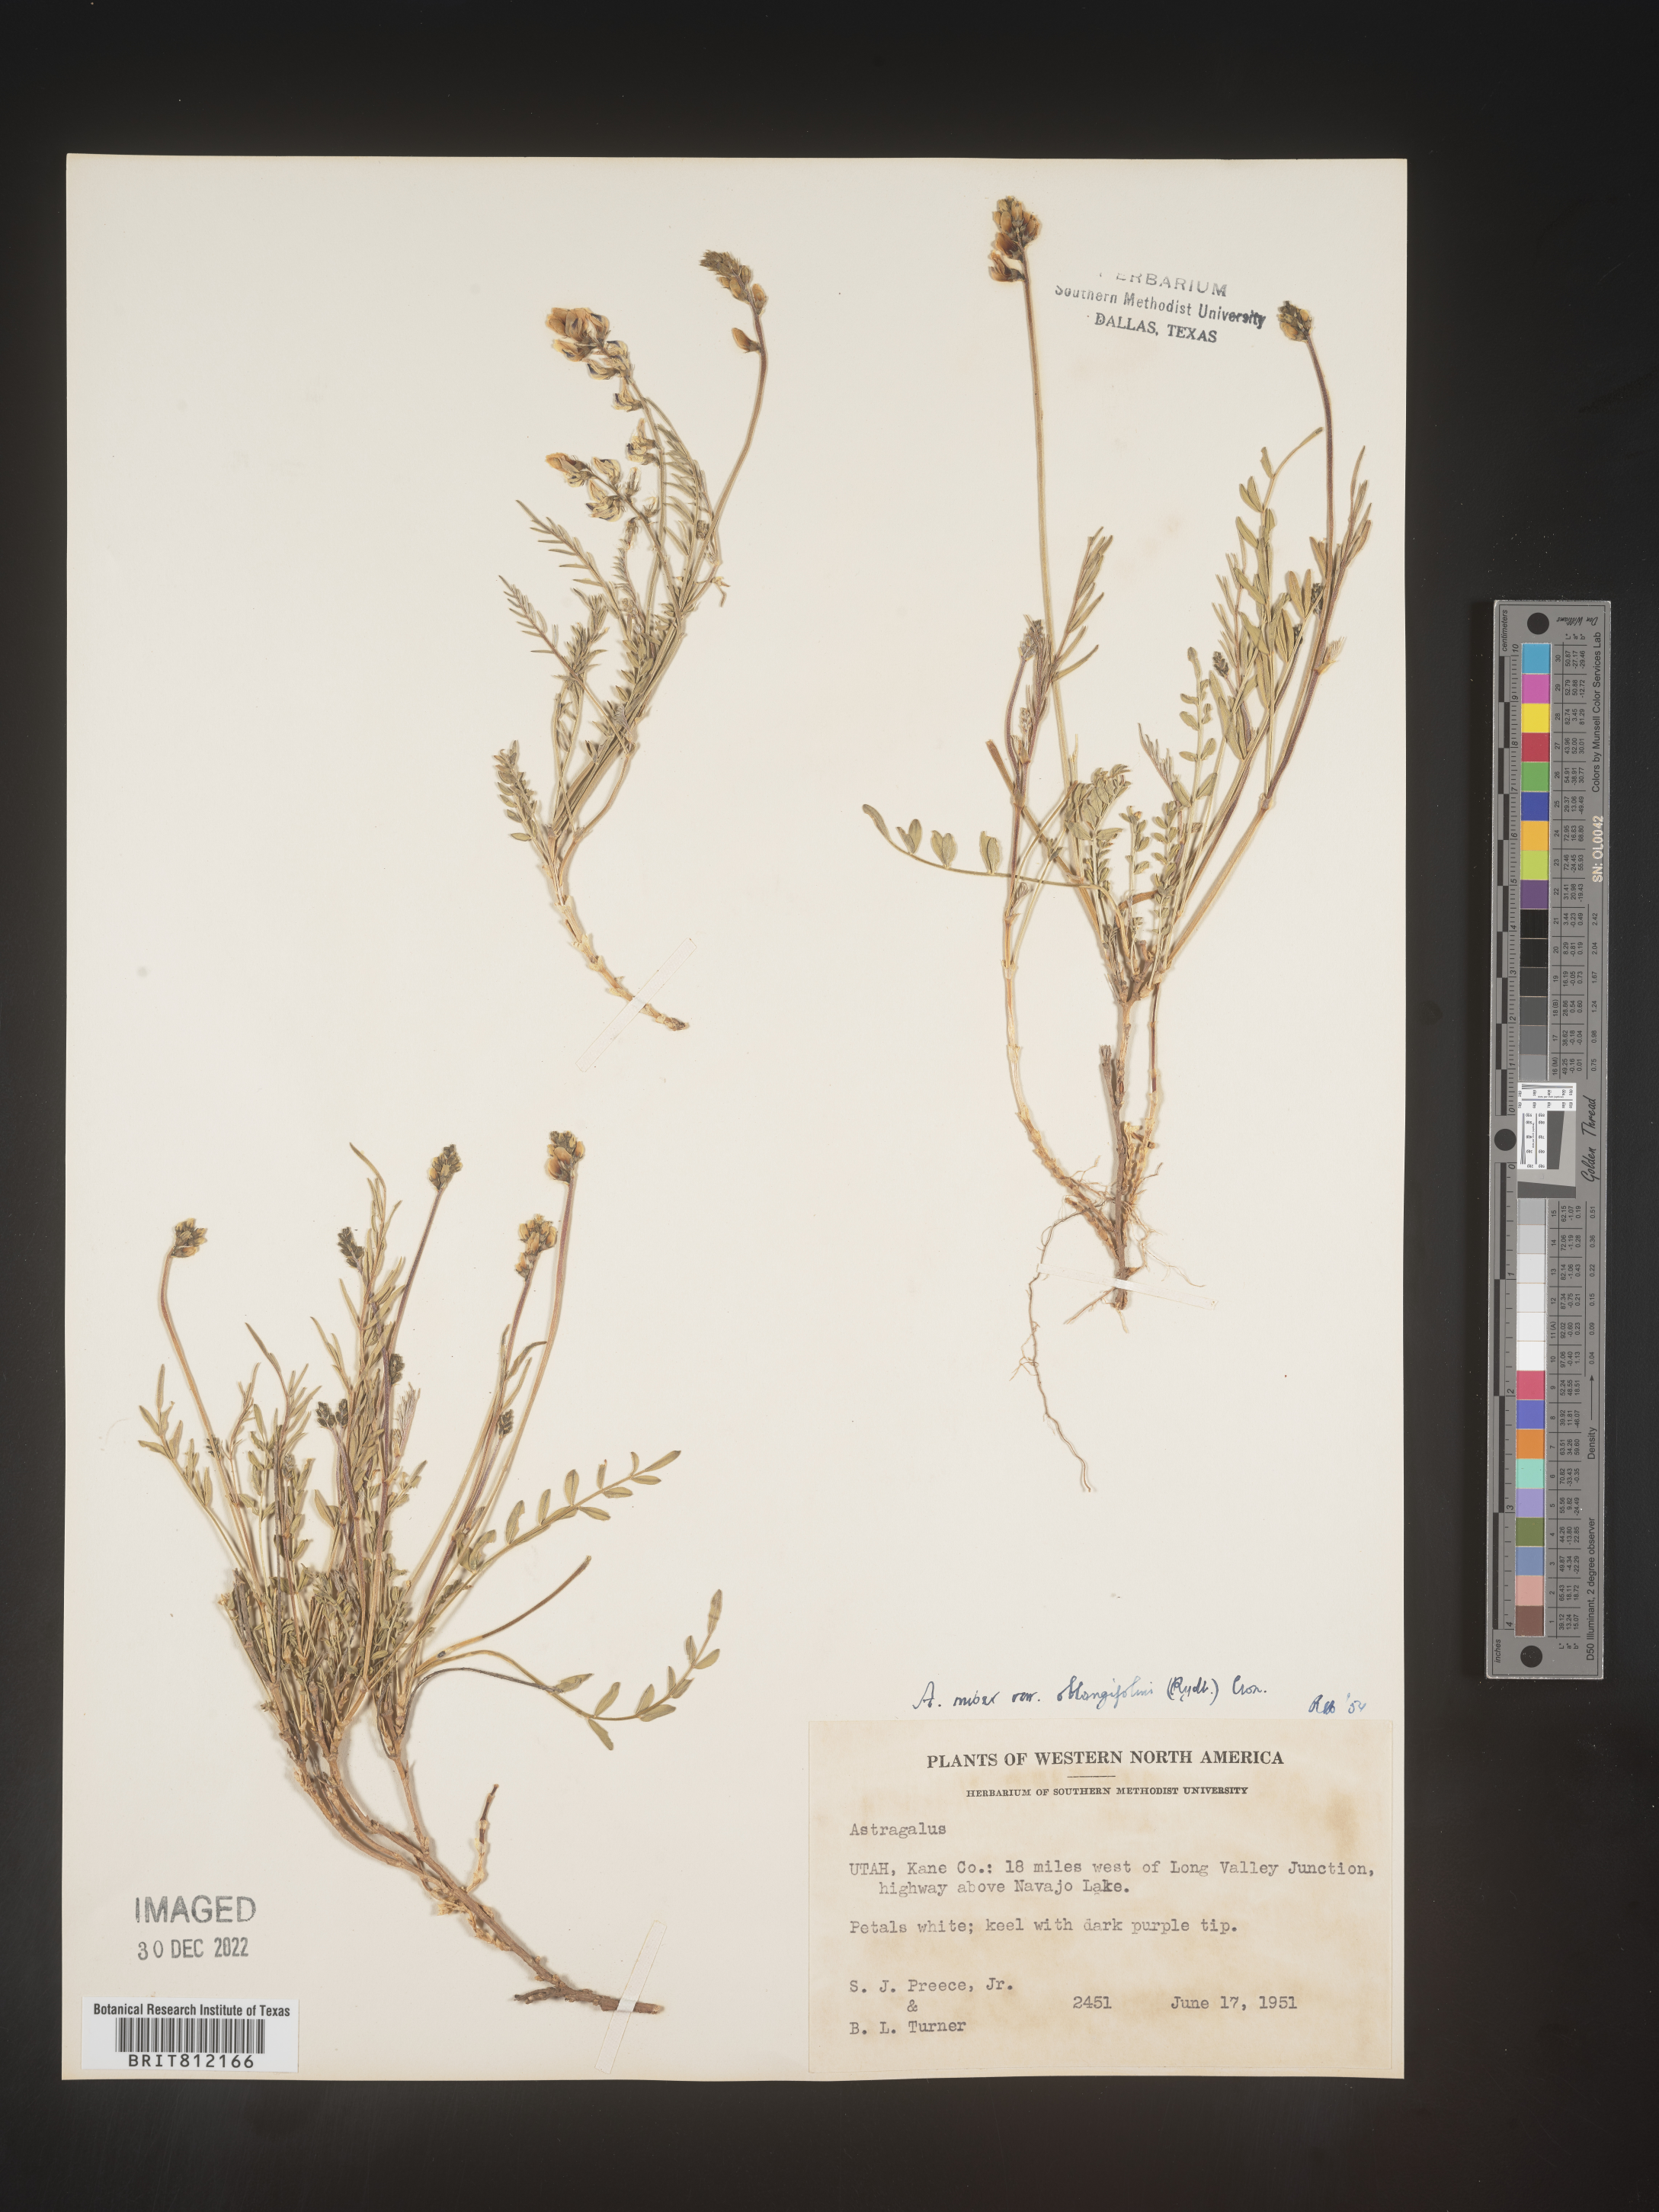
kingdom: Plantae
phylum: Tracheophyta
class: Magnoliopsida
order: Fabales
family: Fabaceae
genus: Astragalus
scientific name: Astragalus miser
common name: Timber milkvetch
